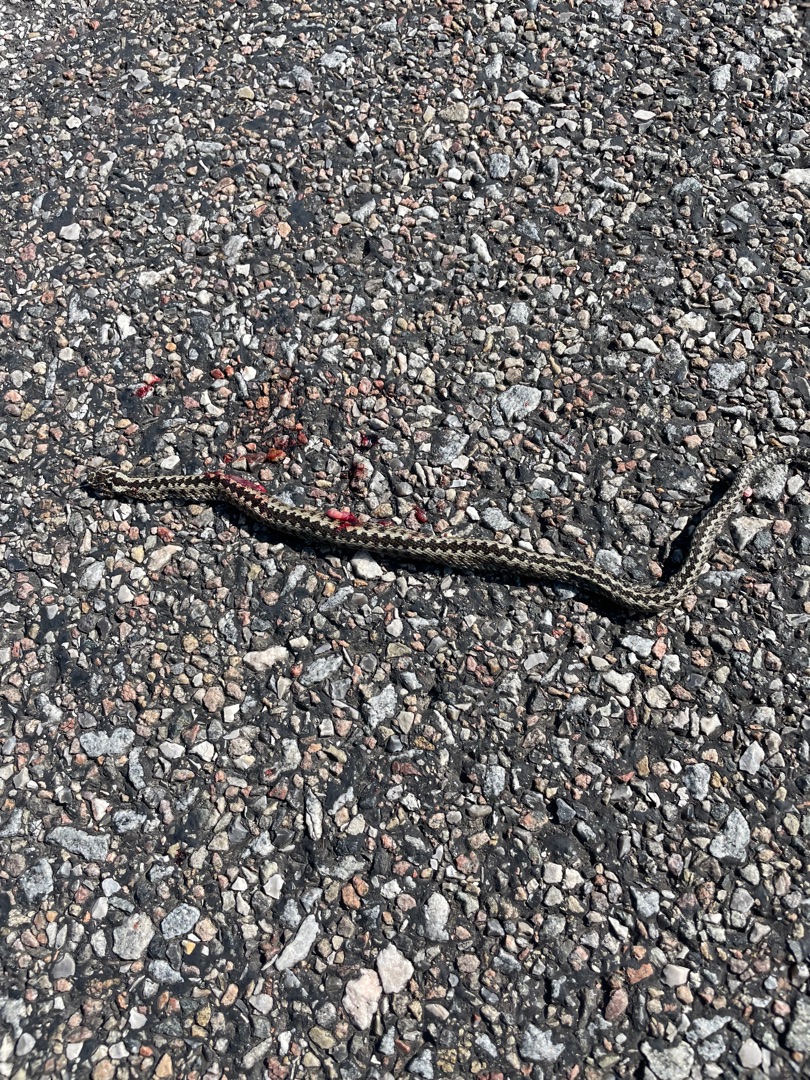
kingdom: Animalia
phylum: Chordata
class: Squamata
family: Viperidae
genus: Vipera
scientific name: Vipera berus
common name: Hugorm
